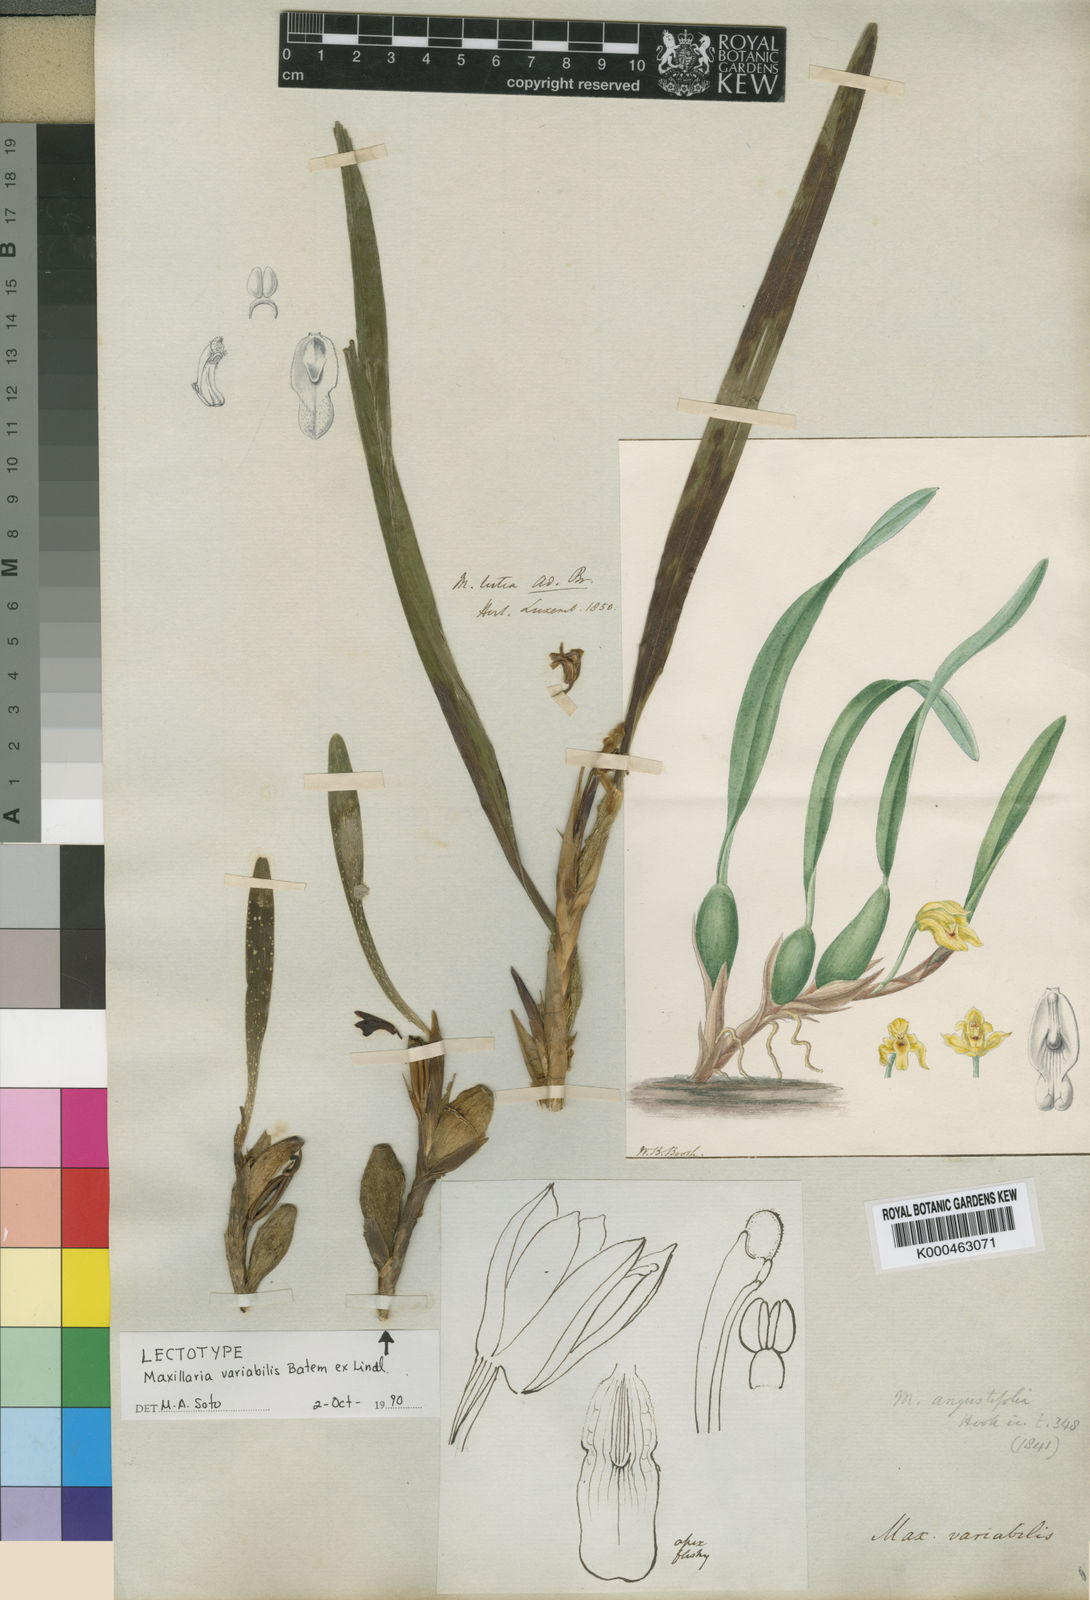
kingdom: Plantae
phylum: Tracheophyta
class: Liliopsida
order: Asparagales
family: Orchidaceae
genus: Maxillaria
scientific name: Maxillaria variabilis
